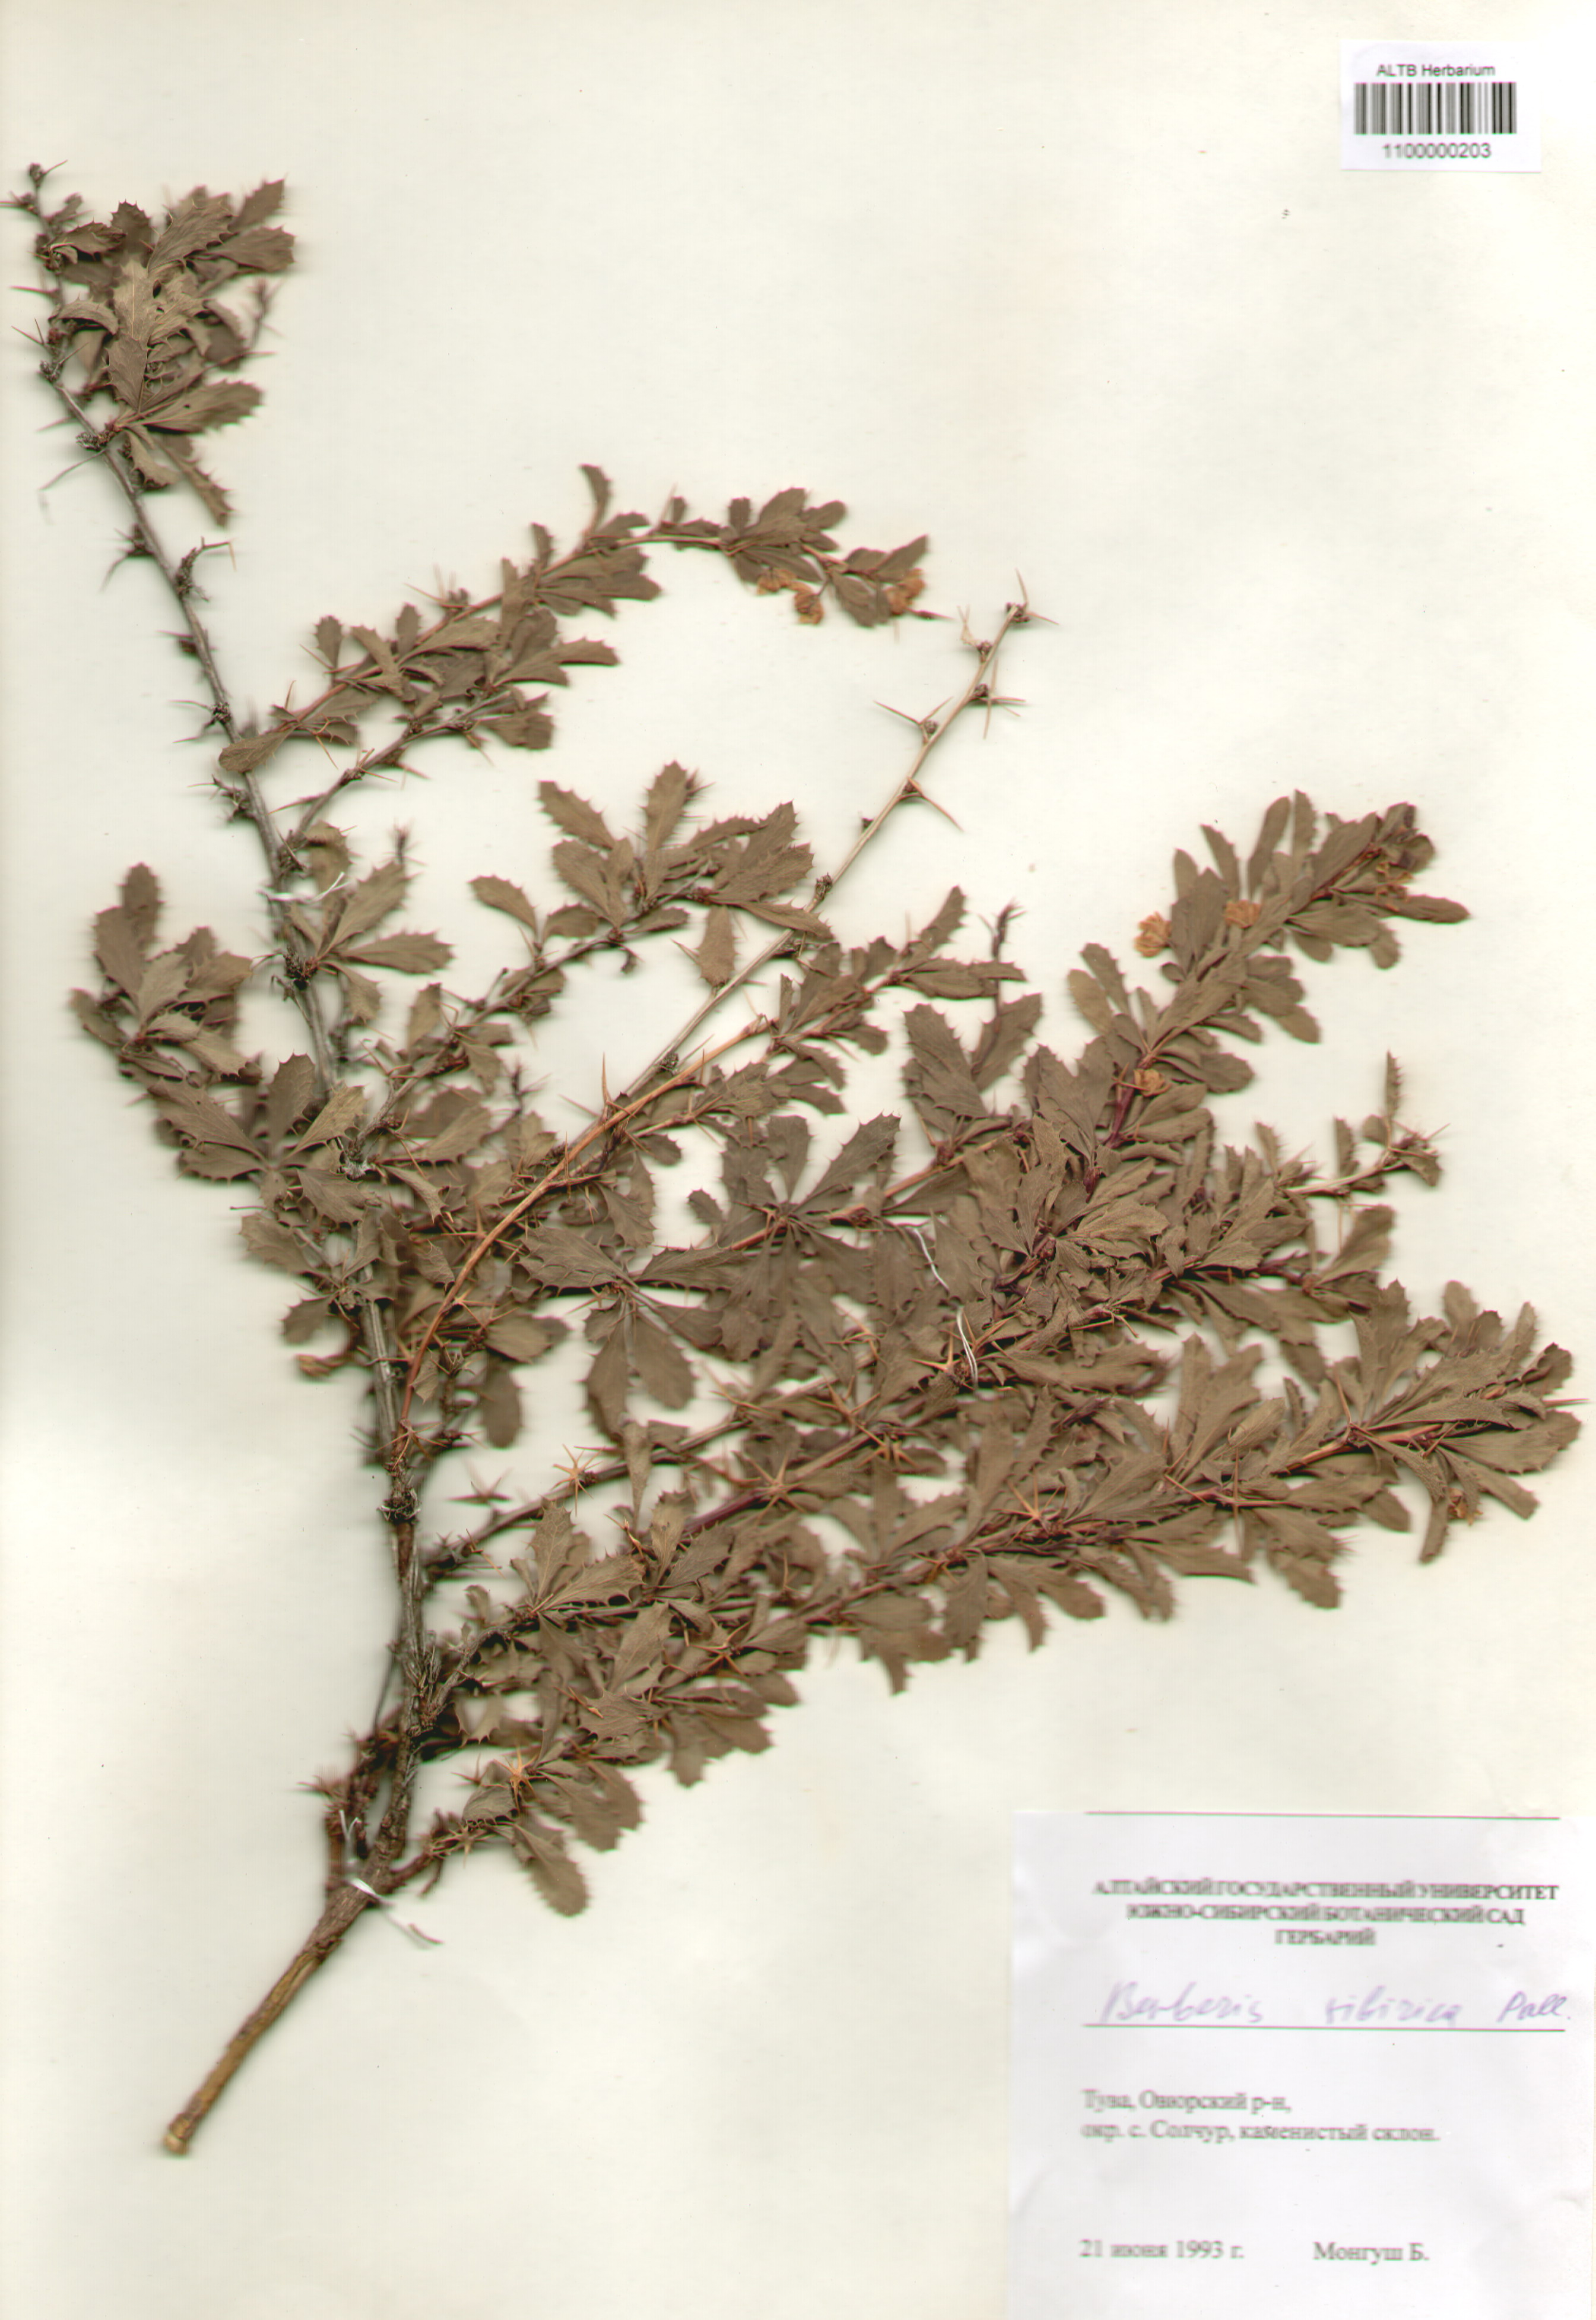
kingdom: Plantae
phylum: Tracheophyta
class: Magnoliopsida
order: Ranunculales
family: Berberidaceae
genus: Berberis
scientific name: Berberis sibirica
